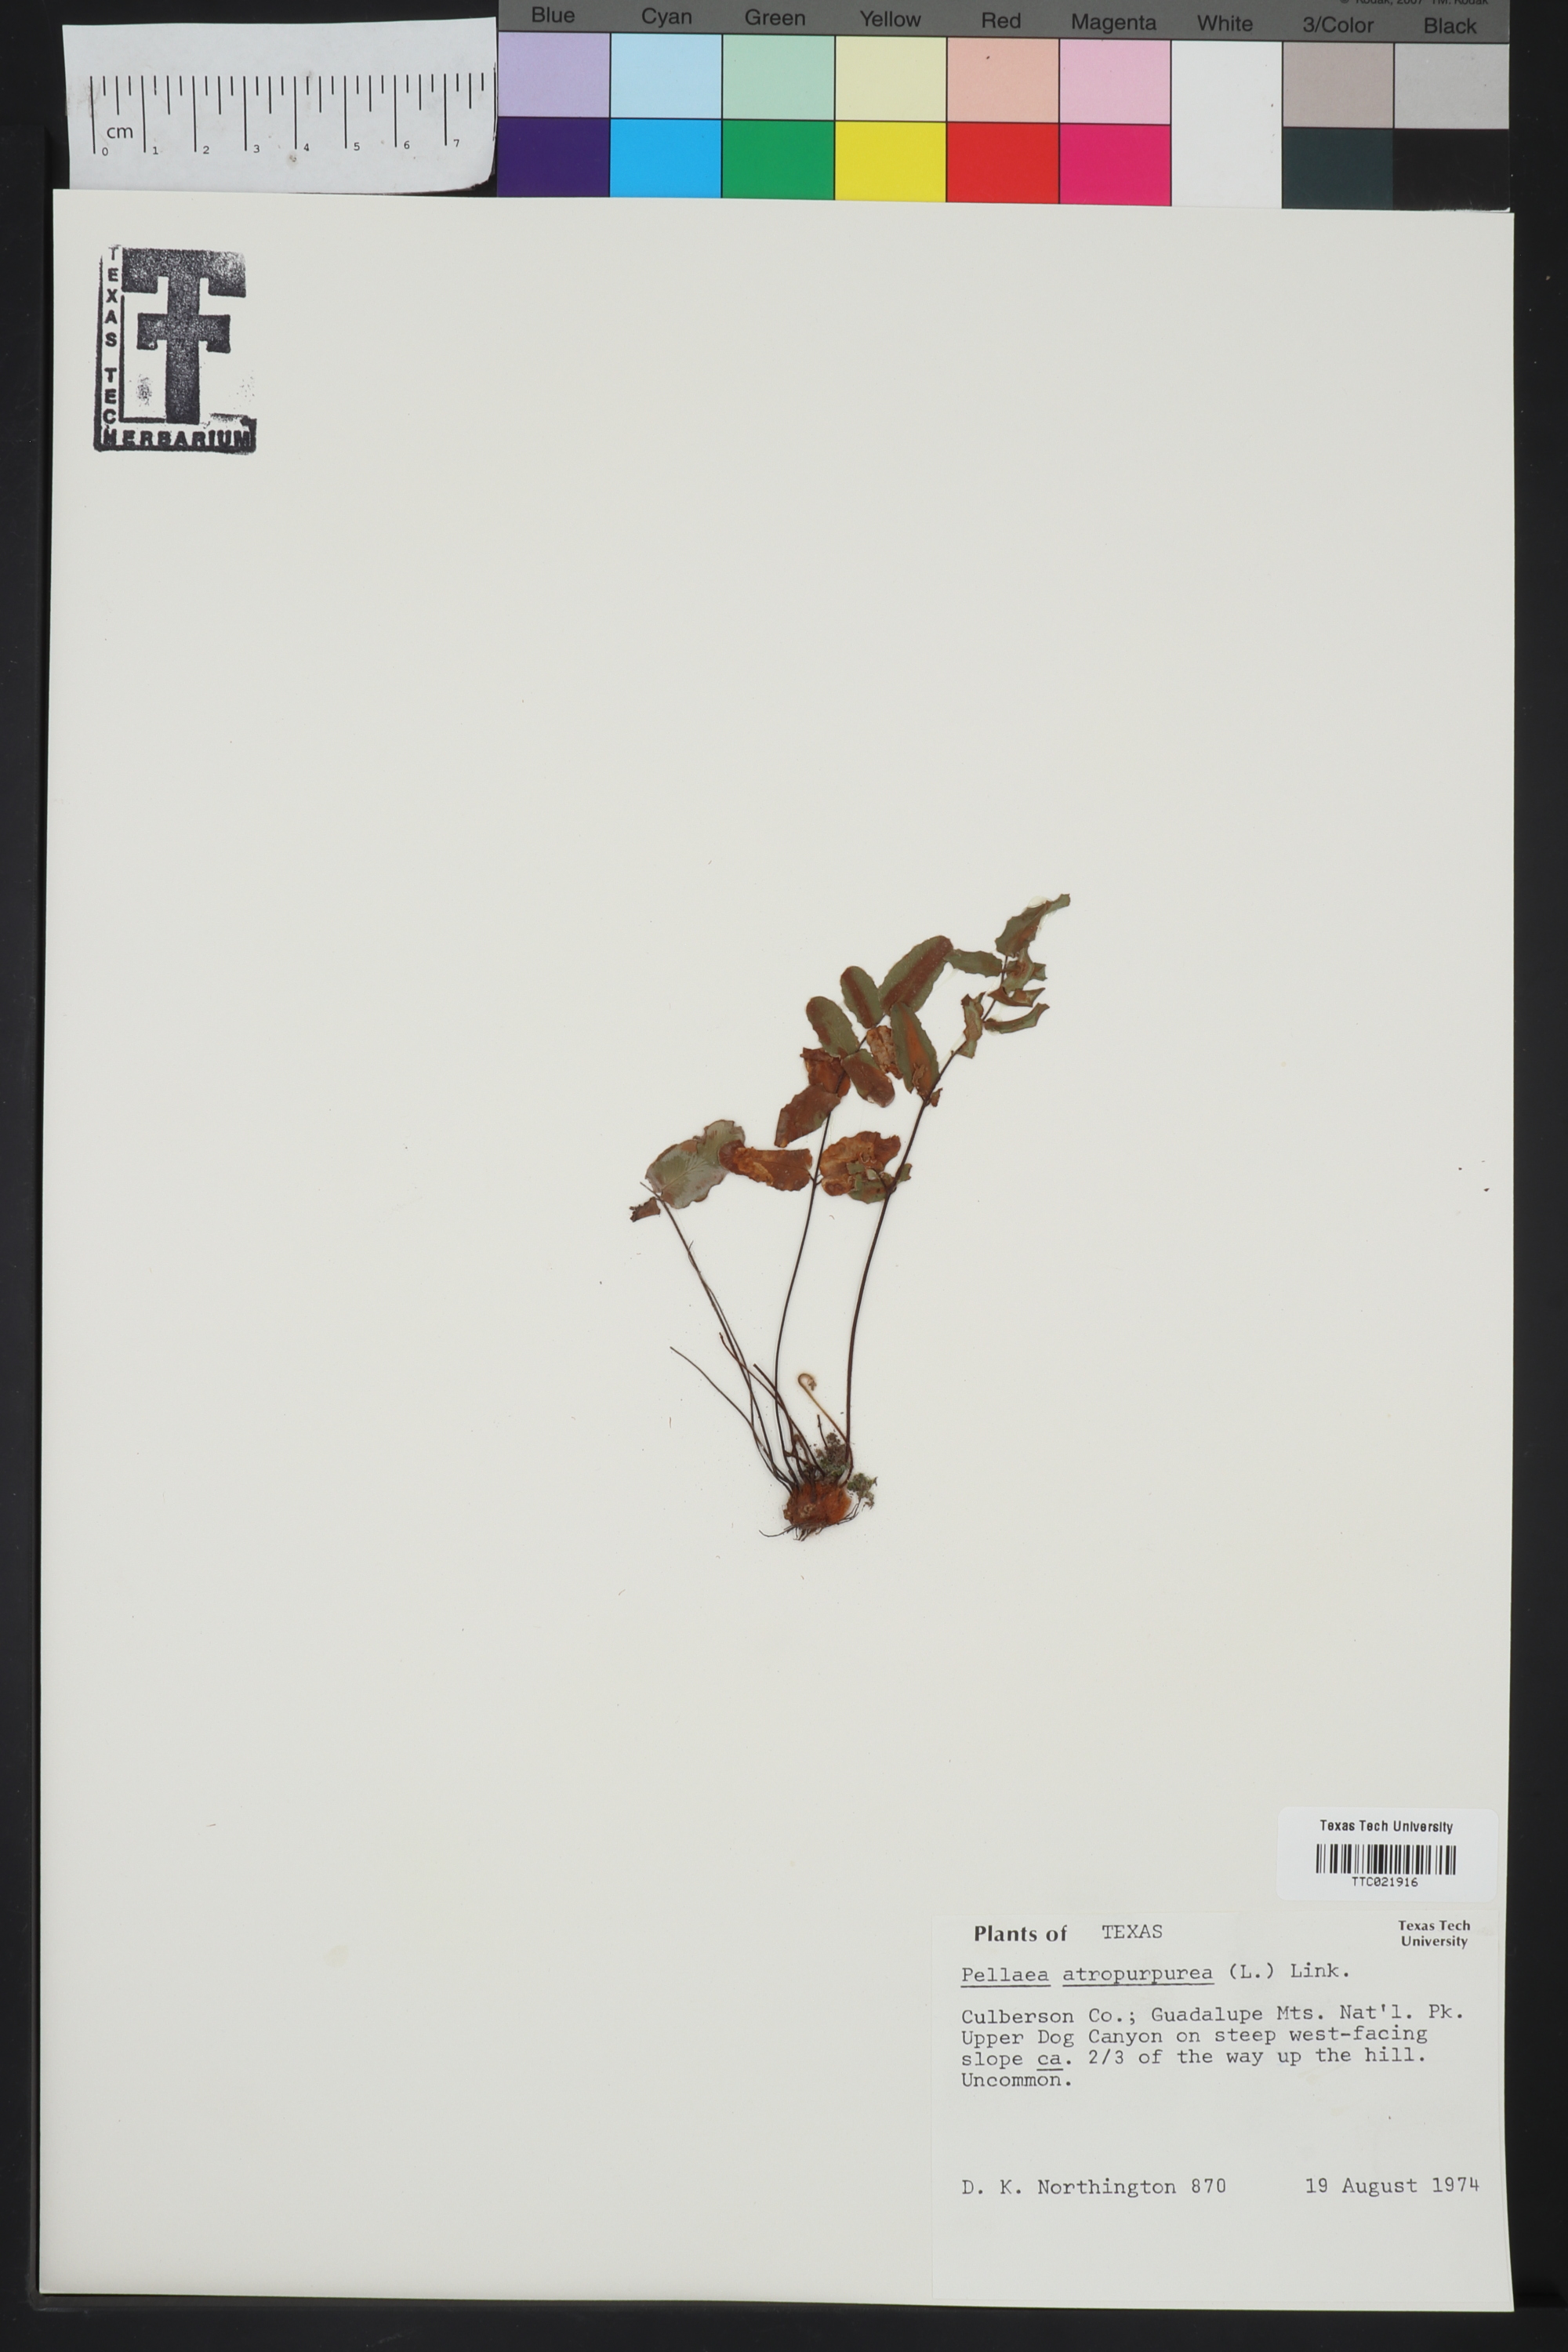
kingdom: Plantae
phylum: Tracheophyta
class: Polypodiopsida
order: Polypodiales
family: Pteridaceae
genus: Pellaea
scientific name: Pellaea atropurpurea
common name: Hairy cliffbrake
